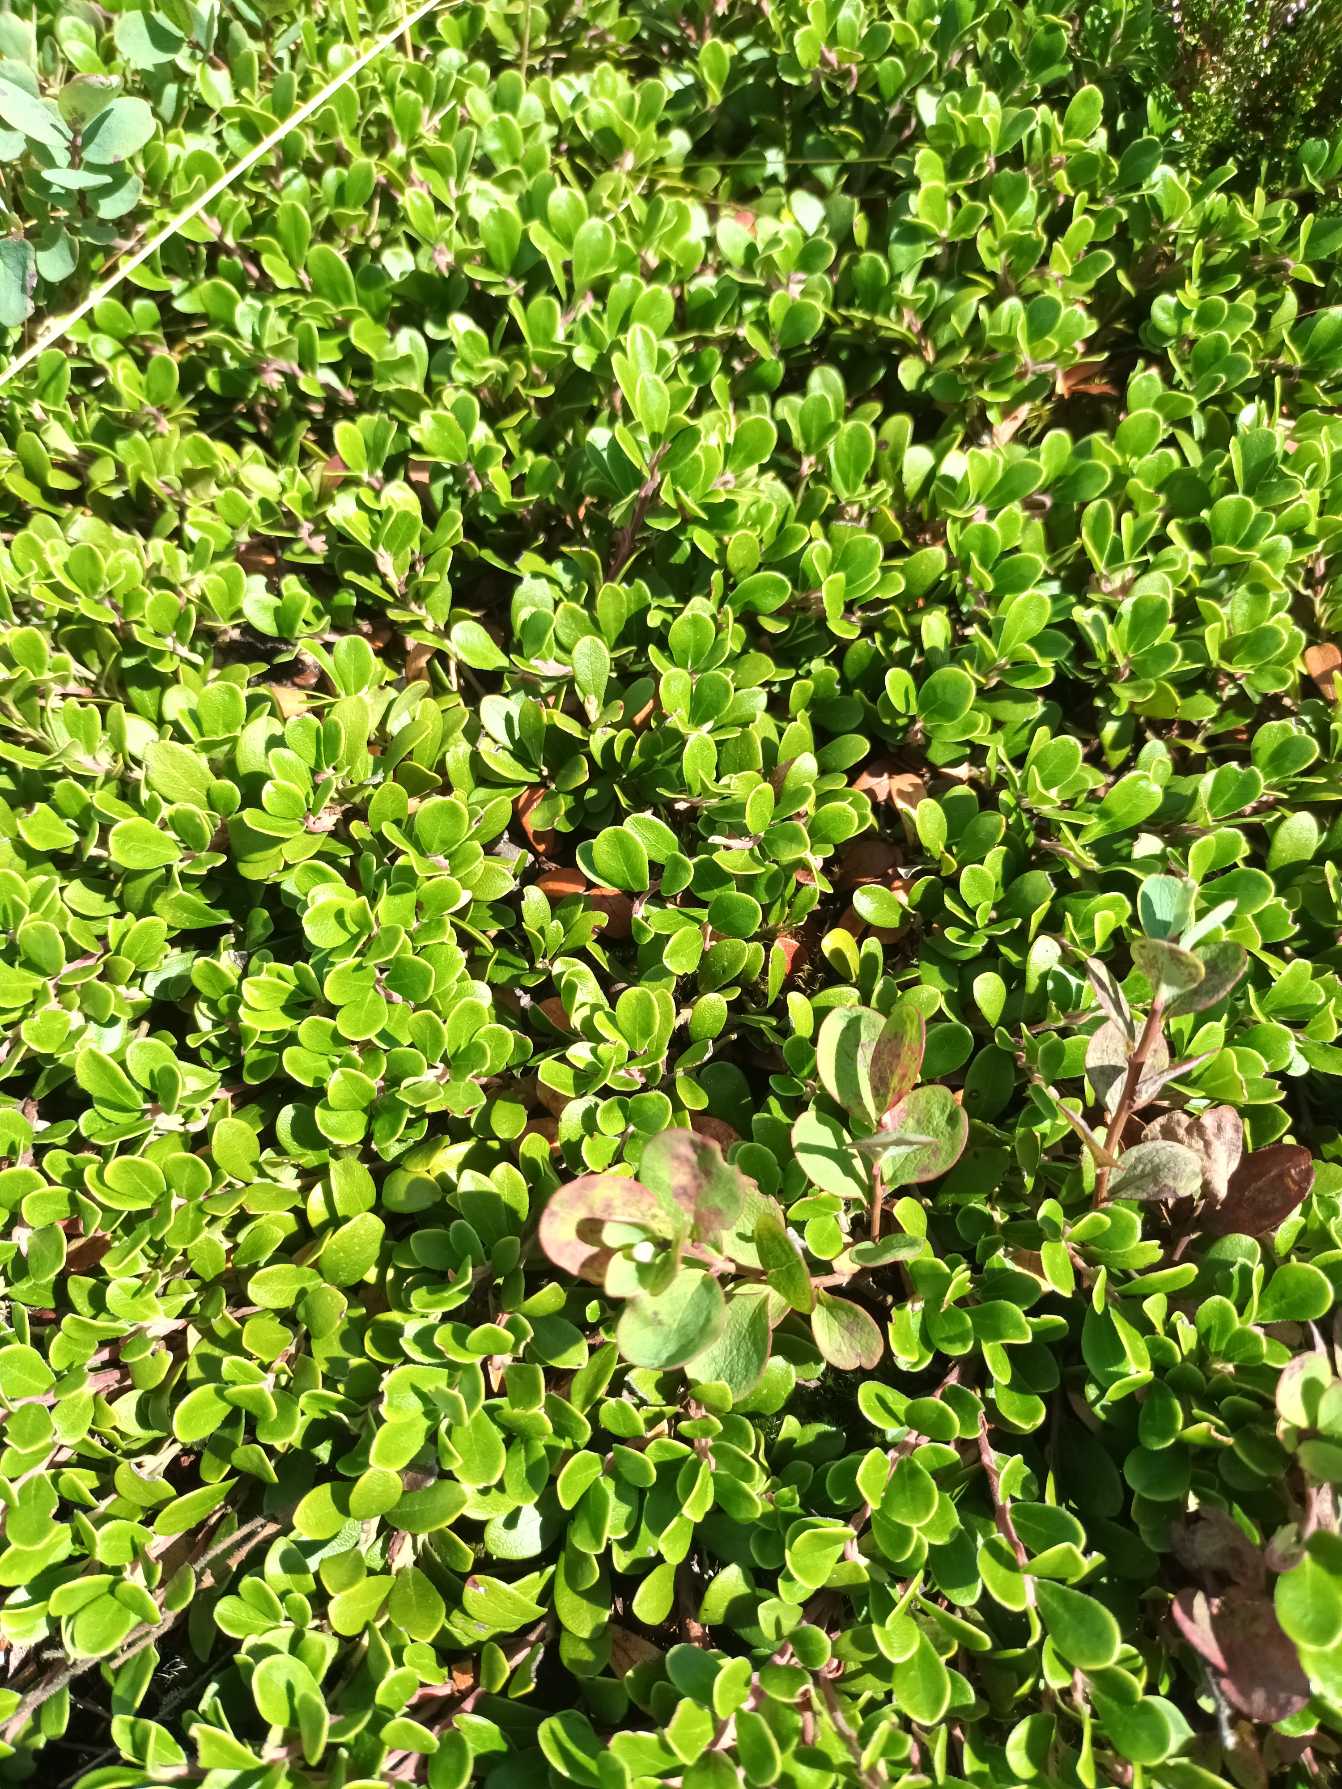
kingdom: Plantae
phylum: Tracheophyta
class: Magnoliopsida
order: Ericales
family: Ericaceae
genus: Arctostaphylos
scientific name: Arctostaphylos uva-ursi
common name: Hede-melbærris
